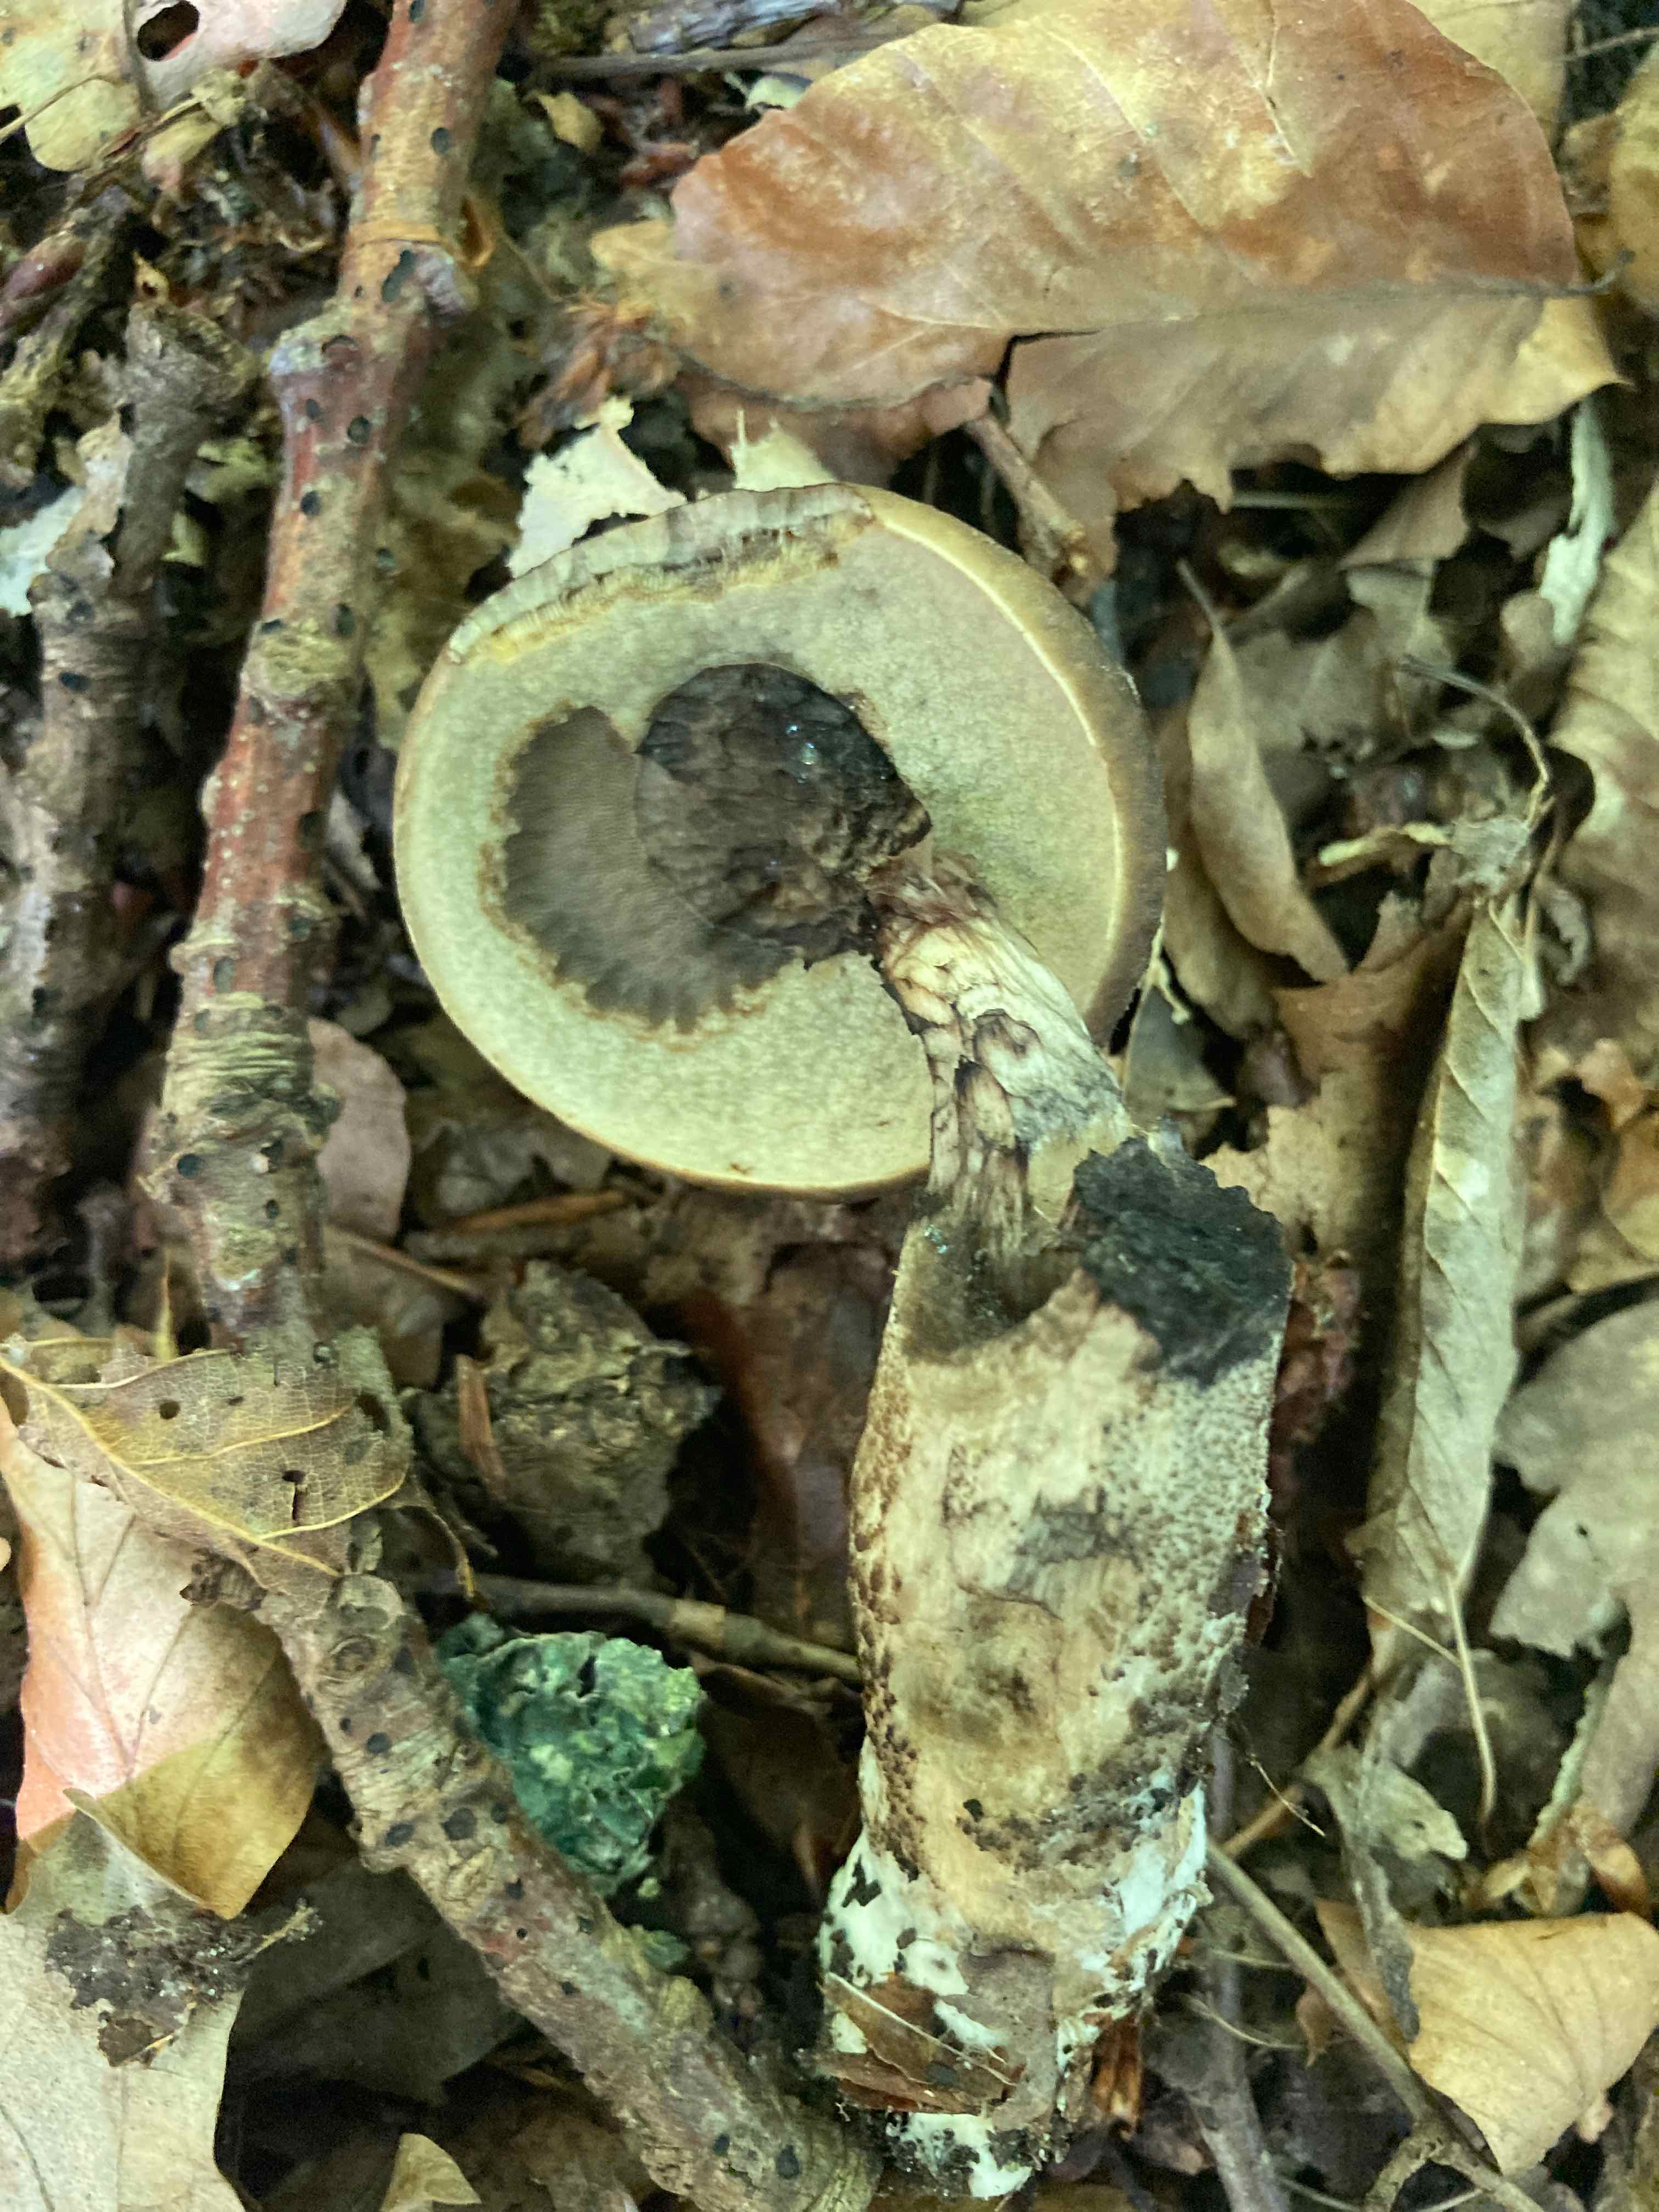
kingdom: Fungi
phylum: Basidiomycota
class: Agaricomycetes
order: Boletales
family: Boletaceae
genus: Leccinellum
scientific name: Leccinellum pseudoscabrum
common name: avnbøg-skælrørhat
